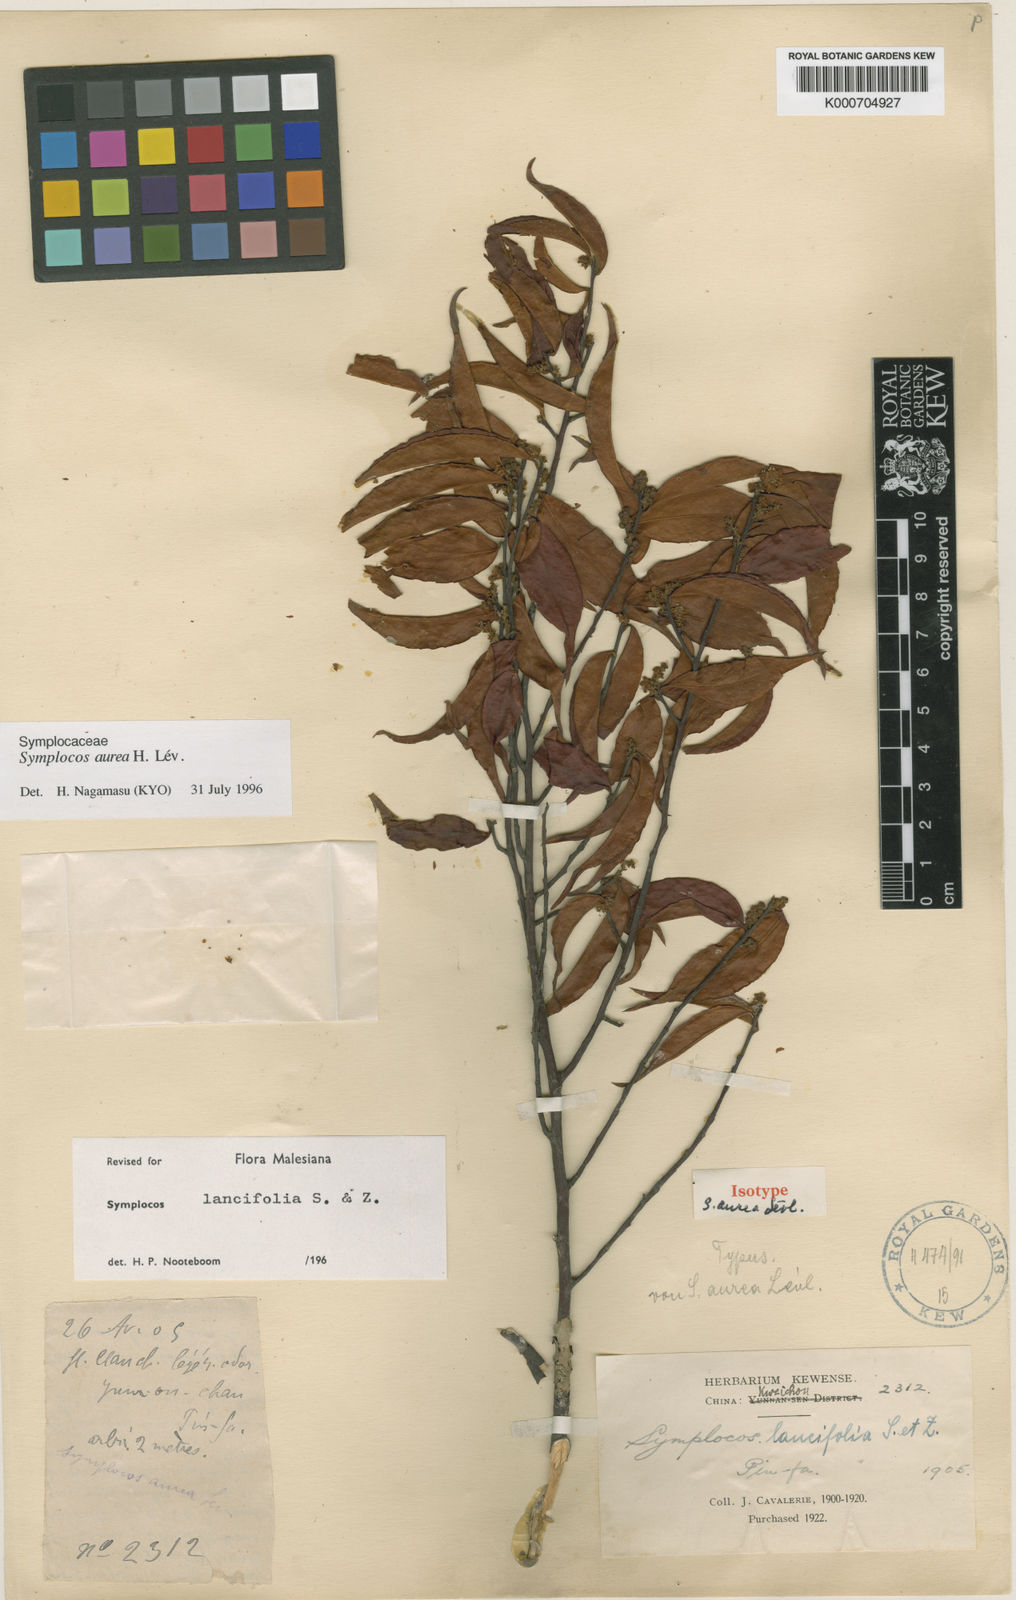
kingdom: Plantae
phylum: Tracheophyta
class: Magnoliopsida
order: Ericales
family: Symplocaceae
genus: Symplocos
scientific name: Symplocos lancifolia
